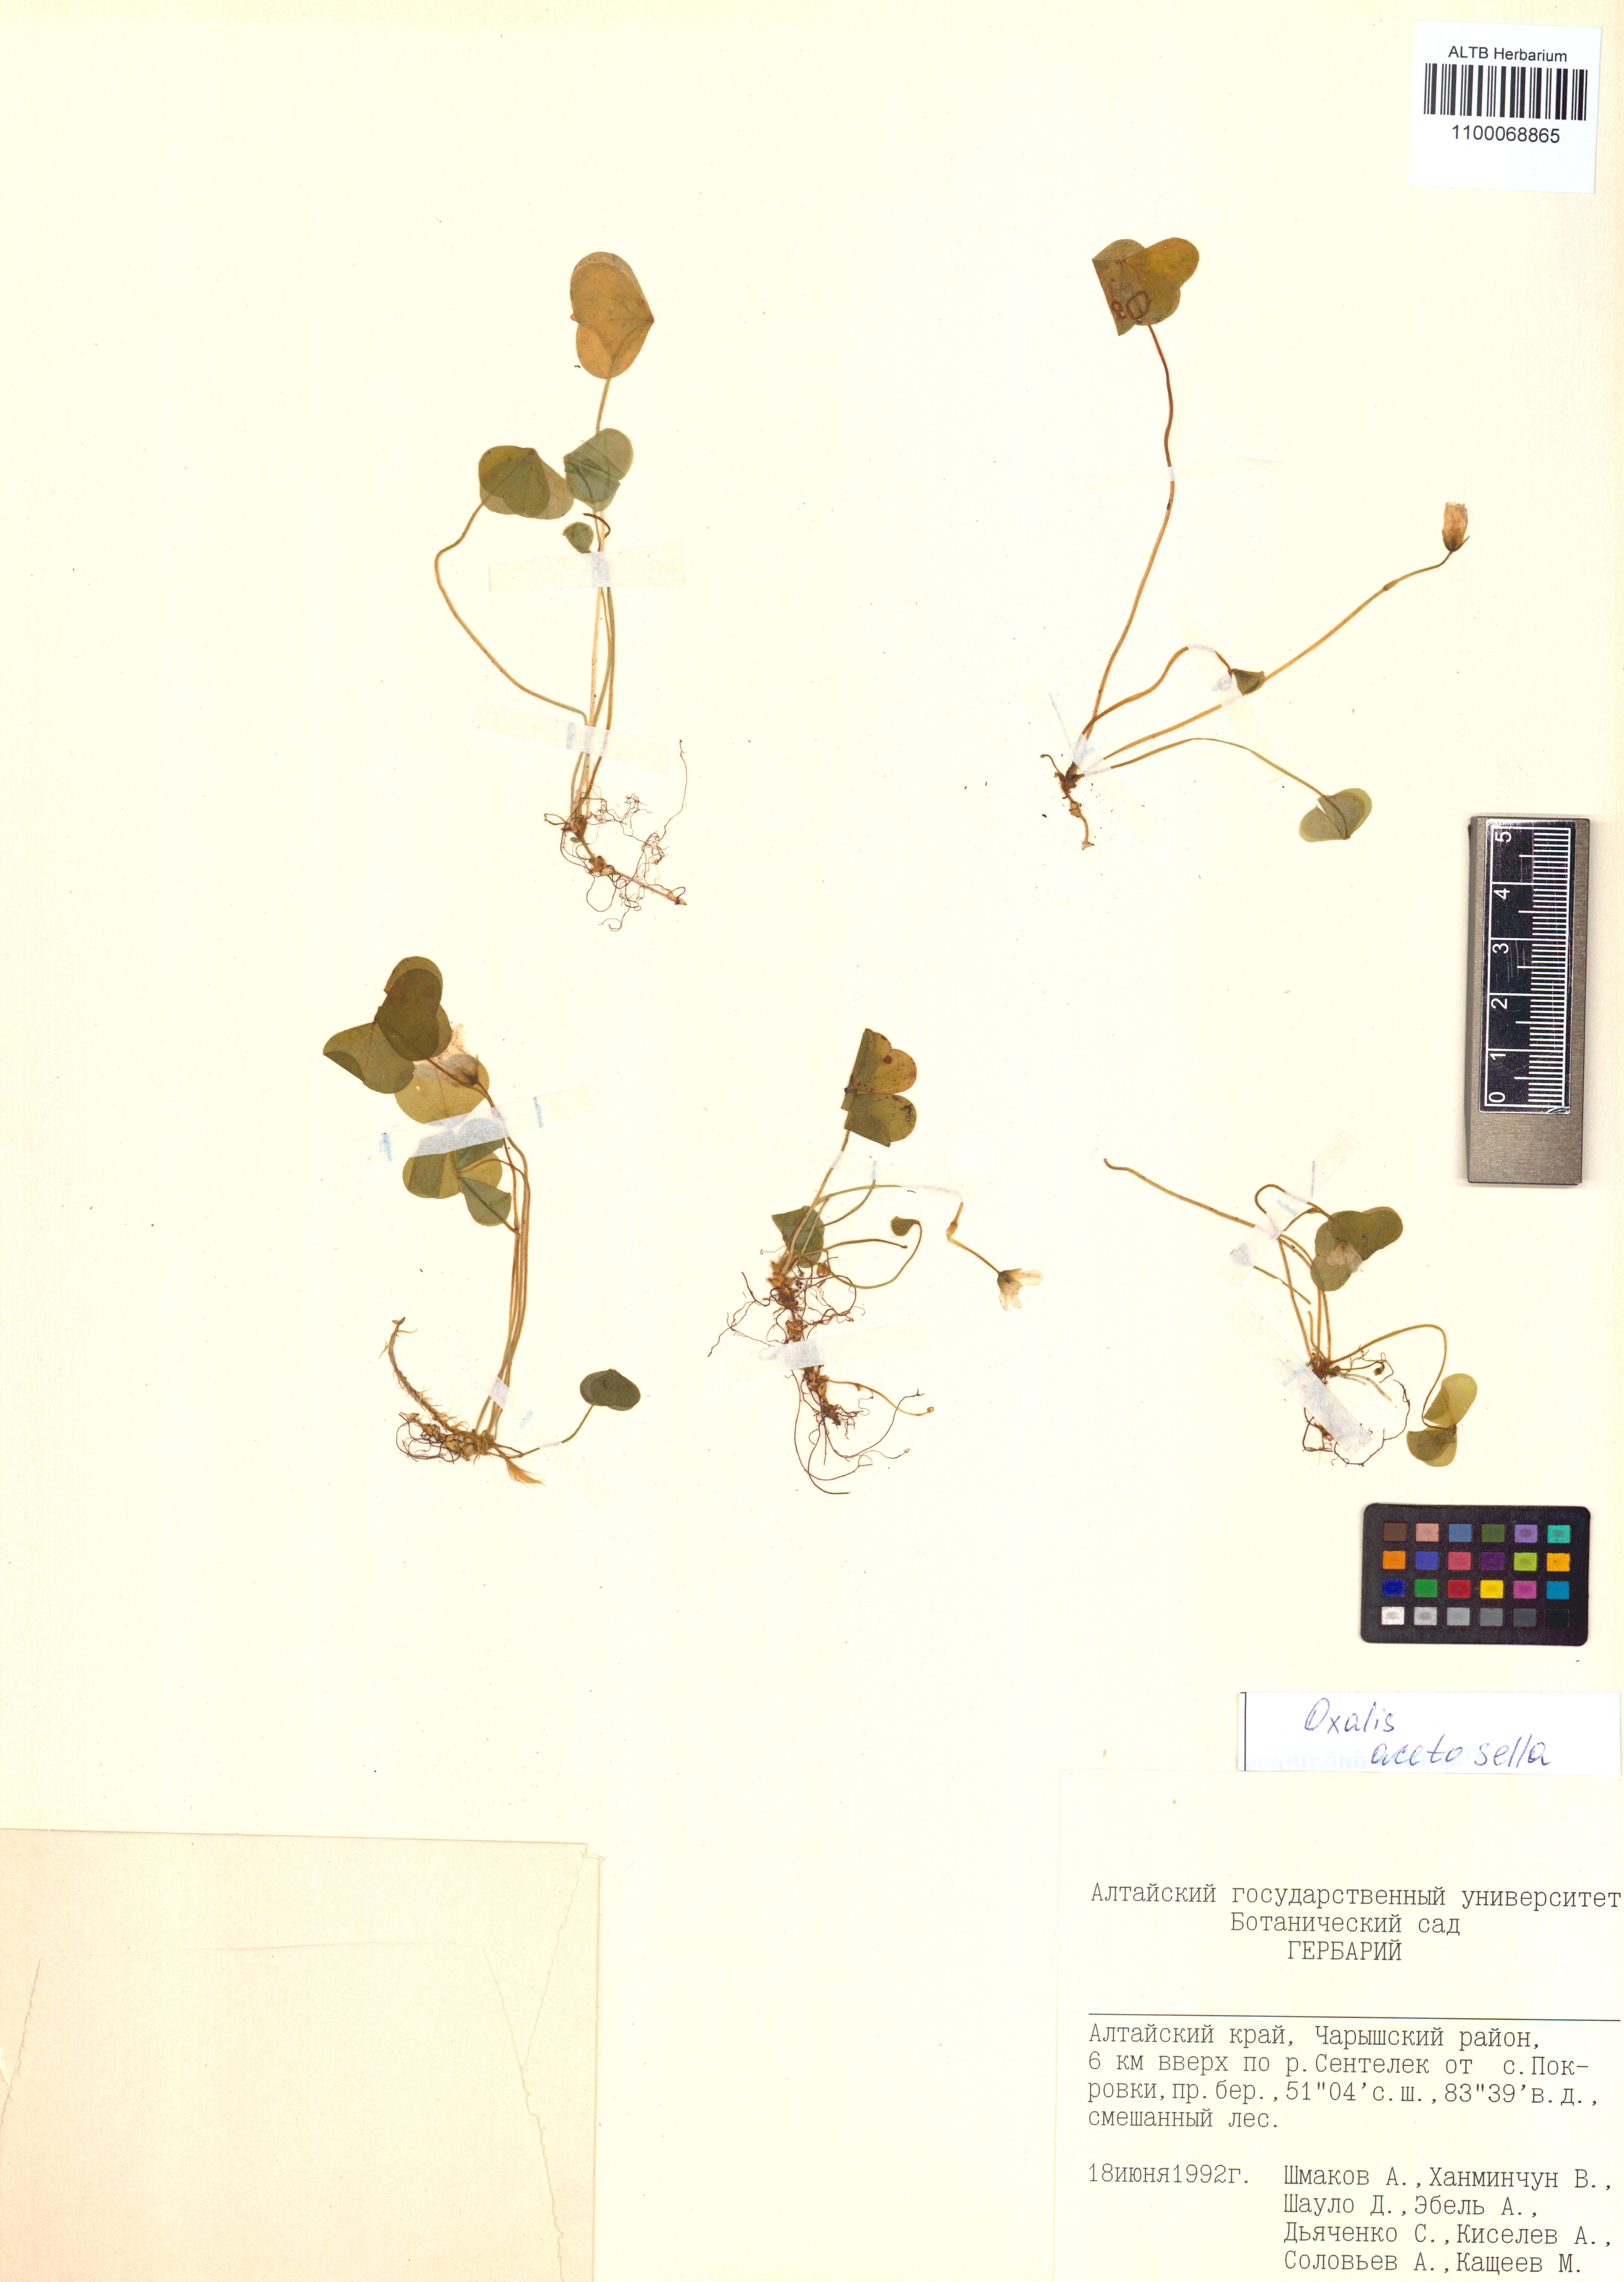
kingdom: Plantae
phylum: Tracheophyta
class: Magnoliopsida
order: Oxalidales
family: Oxalidaceae
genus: Oxalis
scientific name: Oxalis acetosella
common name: Wood-sorrel
